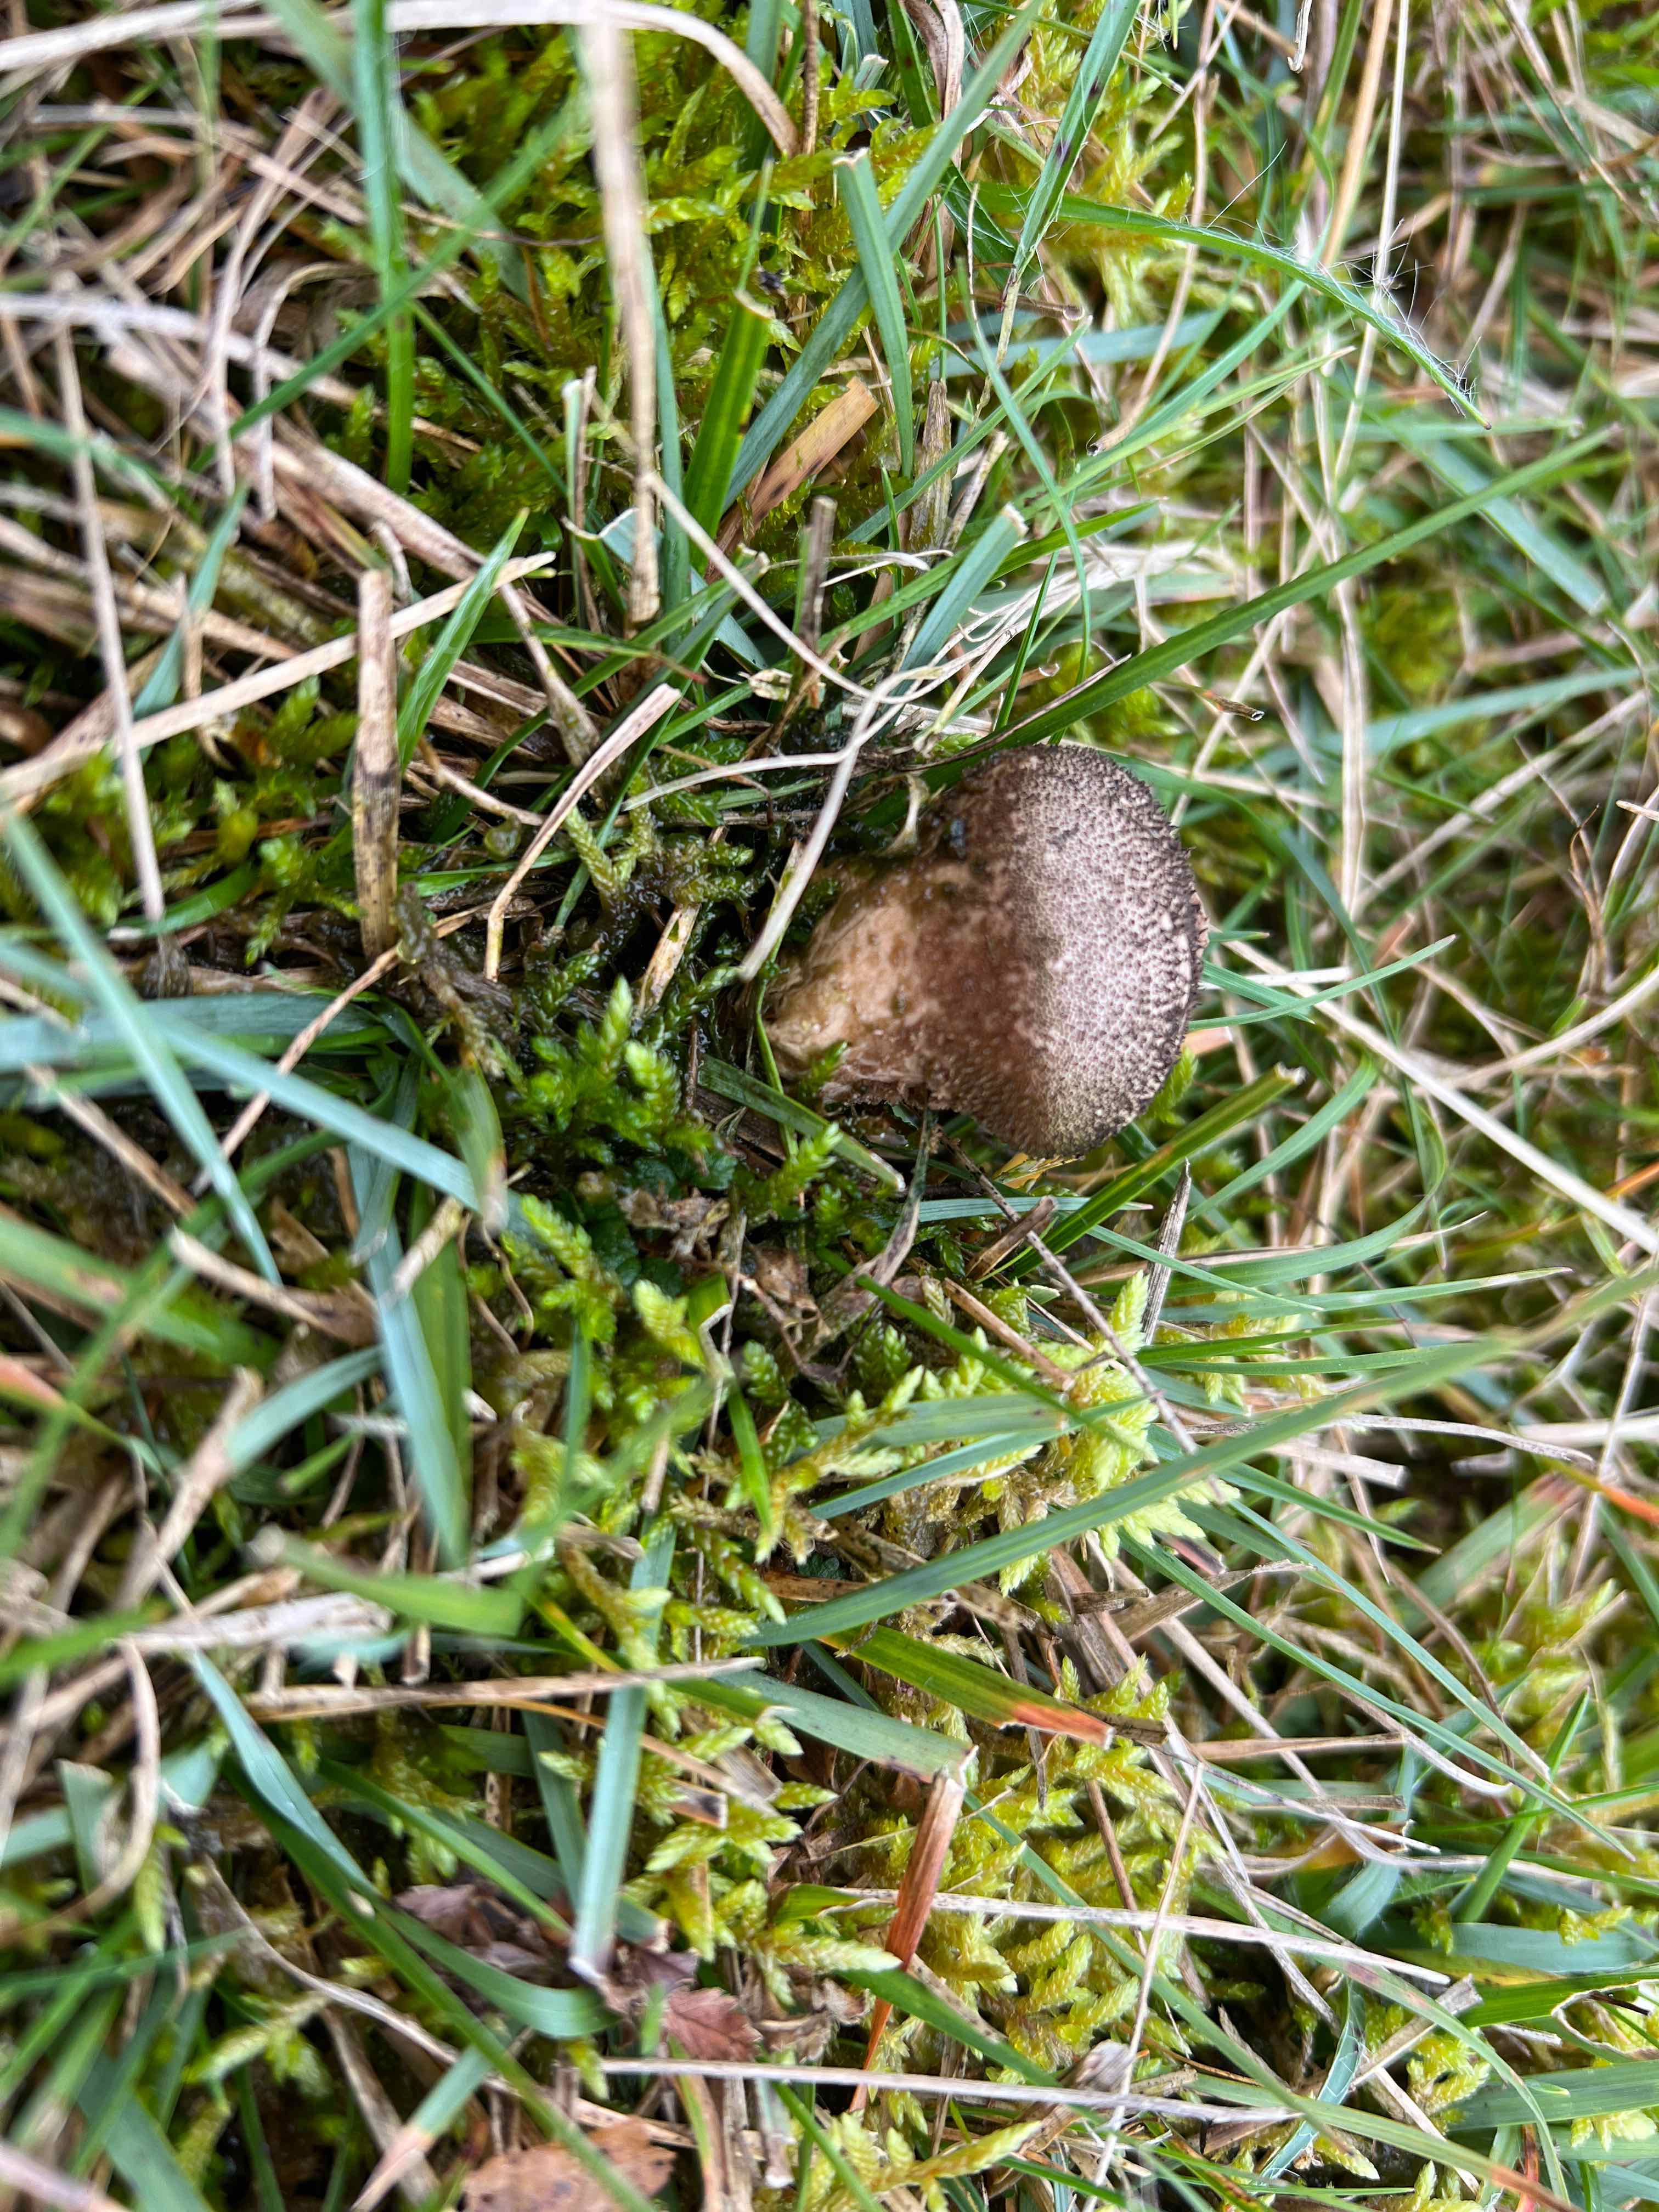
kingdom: Fungi
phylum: Basidiomycota
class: Agaricomycetes
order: Agaricales
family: Lycoperdaceae
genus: Lycoperdon
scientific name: Lycoperdon nigrescens
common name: sortagtig støvbold
